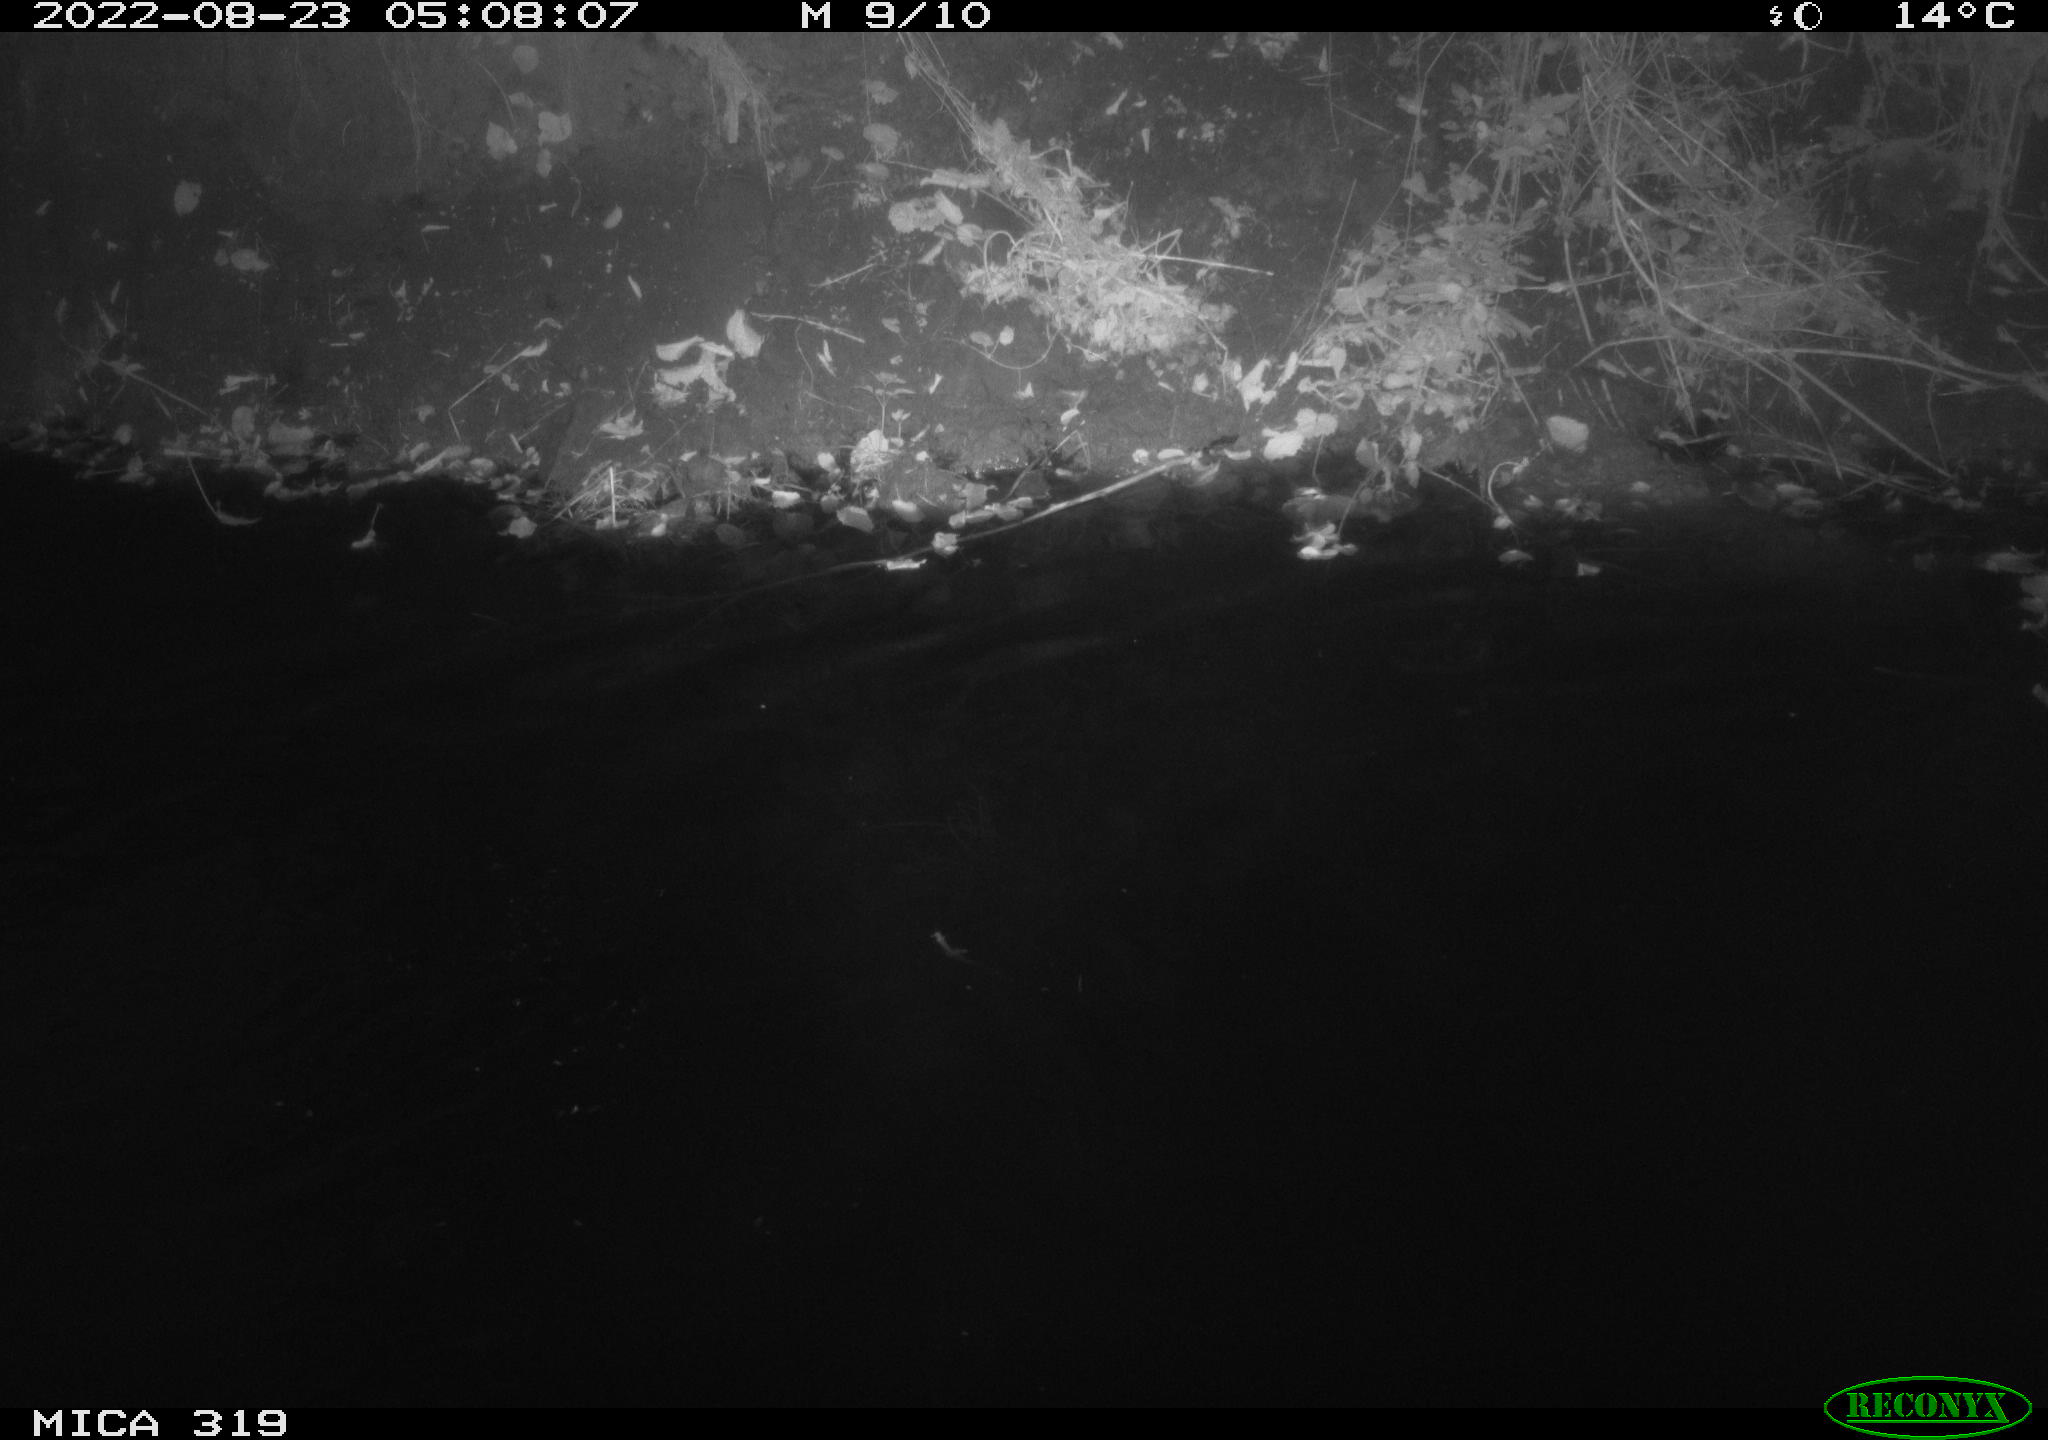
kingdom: Animalia
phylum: Chordata
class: Aves
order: Anseriformes
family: Anatidae
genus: Anas
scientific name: Anas
